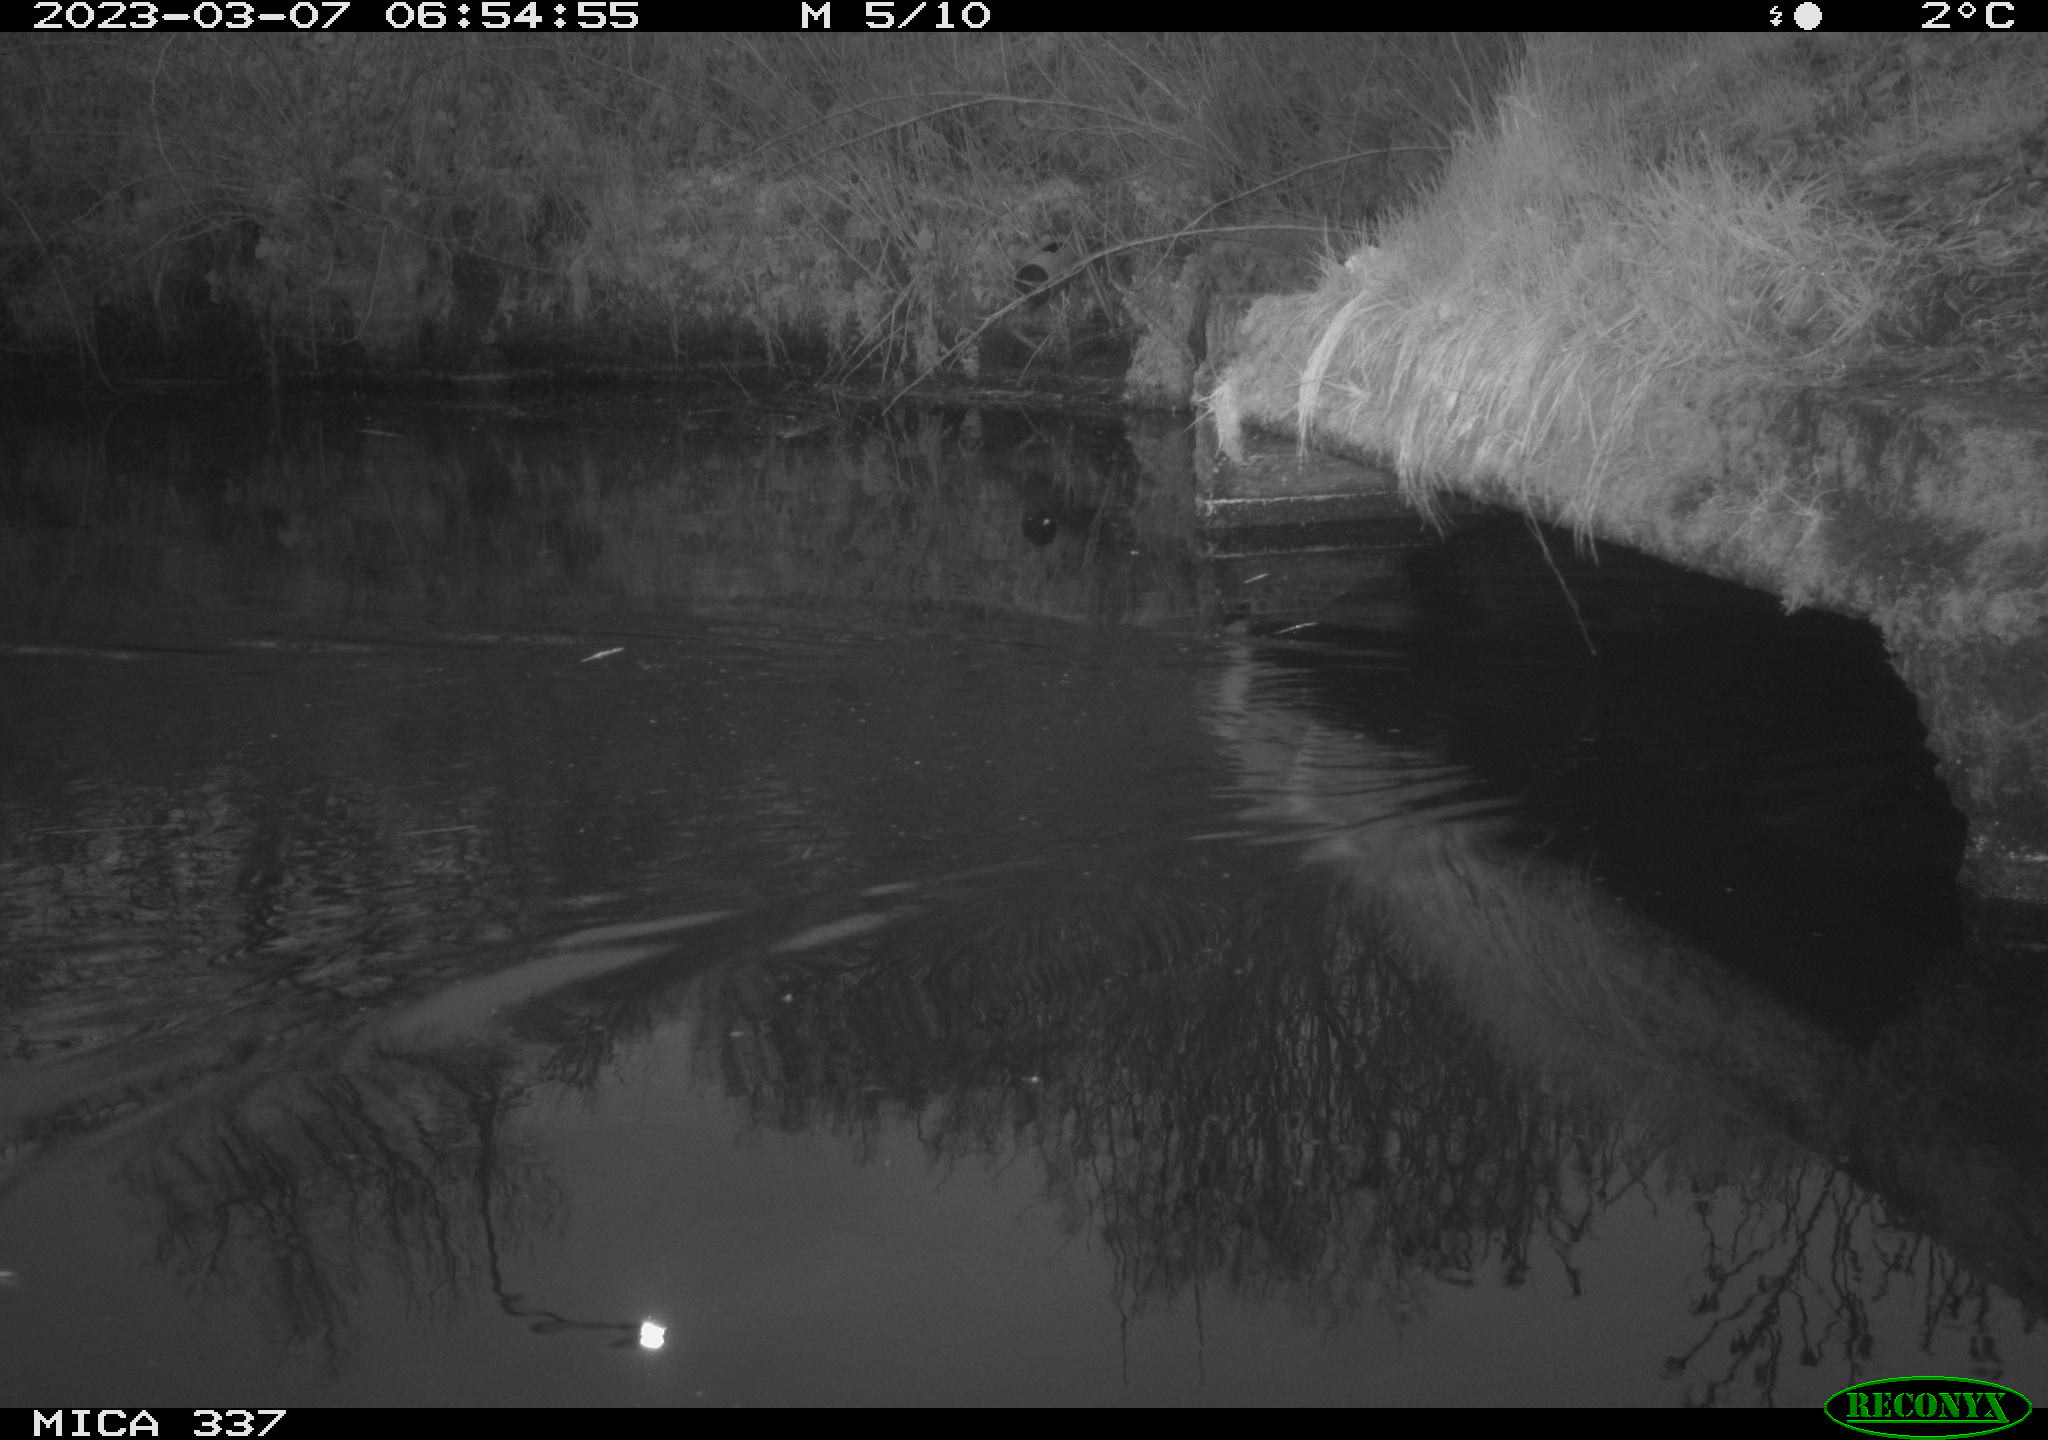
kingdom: Animalia
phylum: Chordata
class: Aves
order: Anseriformes
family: Anatidae
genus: Anas
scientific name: Anas
